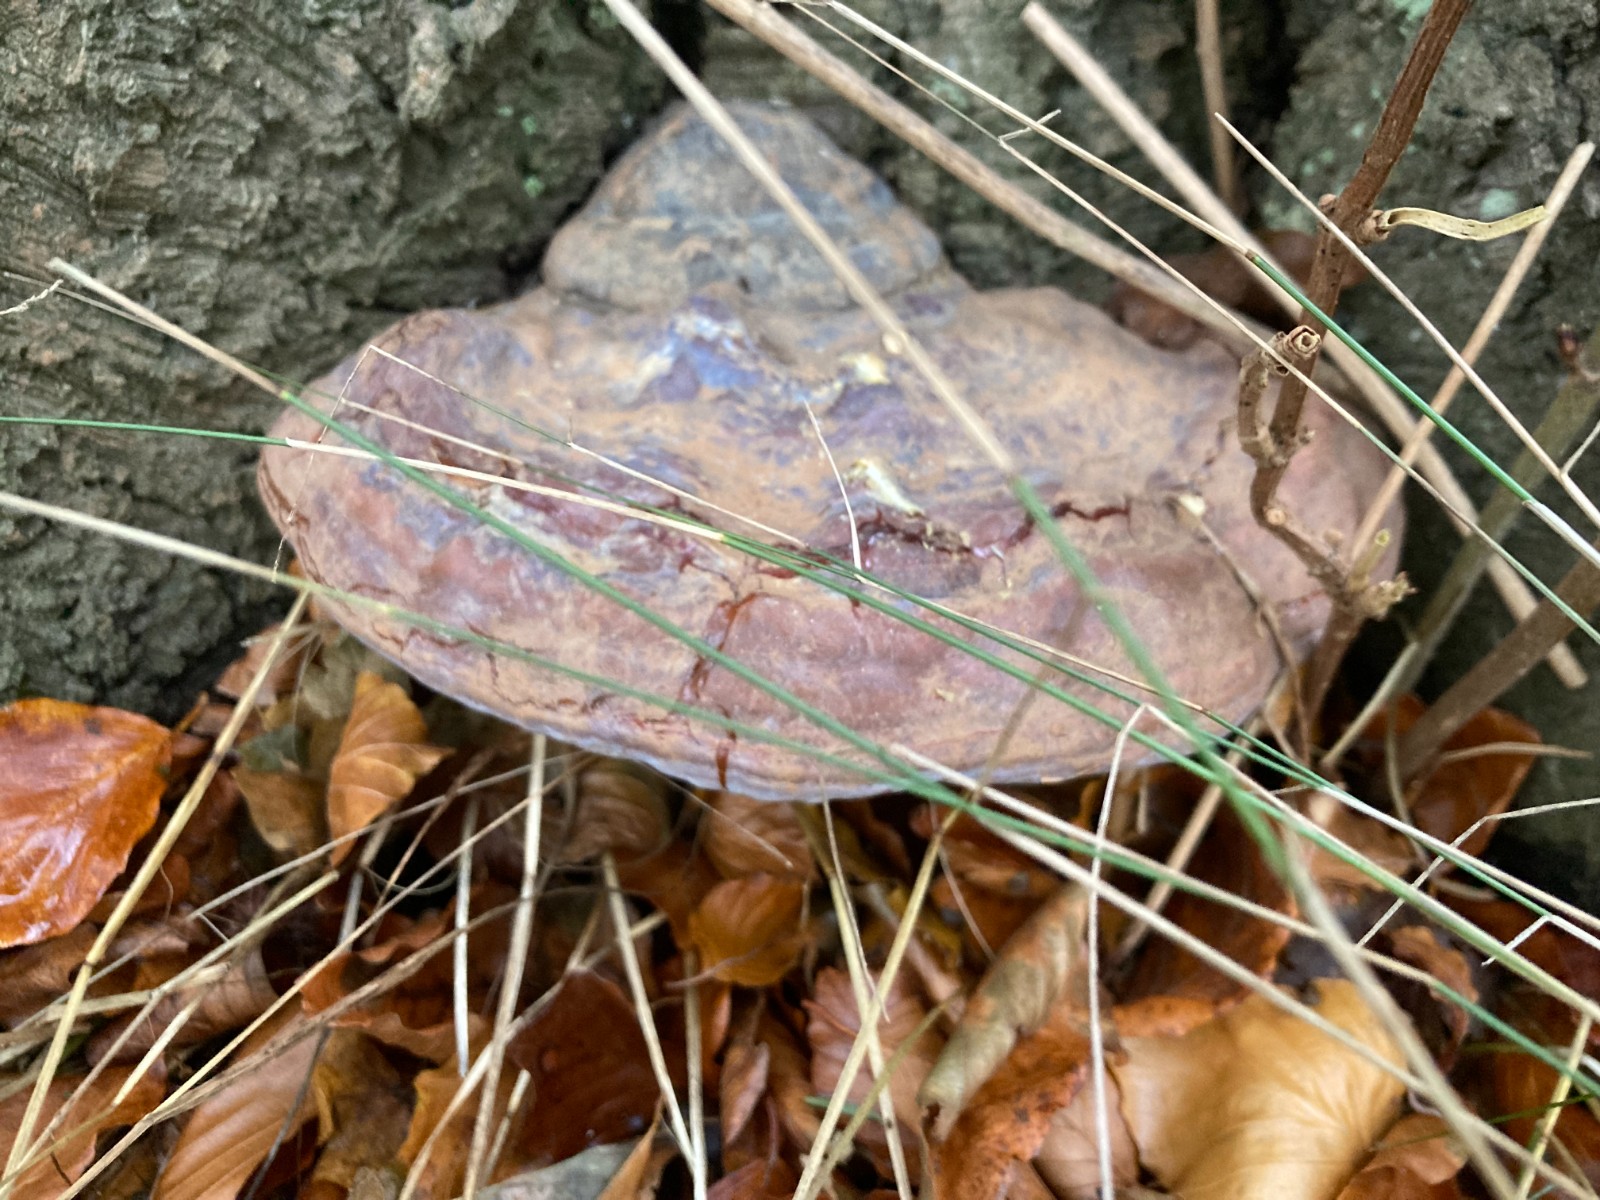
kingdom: Fungi
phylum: Basidiomycota
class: Agaricomycetes
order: Polyporales
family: Polyporaceae
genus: Ganoderma
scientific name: Ganoderma pfeifferi
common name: kobberrød lakporesvamp
